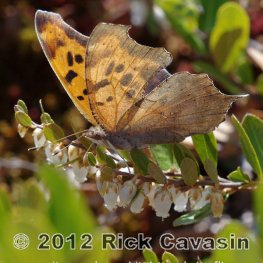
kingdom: Animalia
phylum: Arthropoda
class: Insecta
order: Lepidoptera
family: Nymphalidae
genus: Polygonia
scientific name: Polygonia interrogationis
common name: Question Mark
